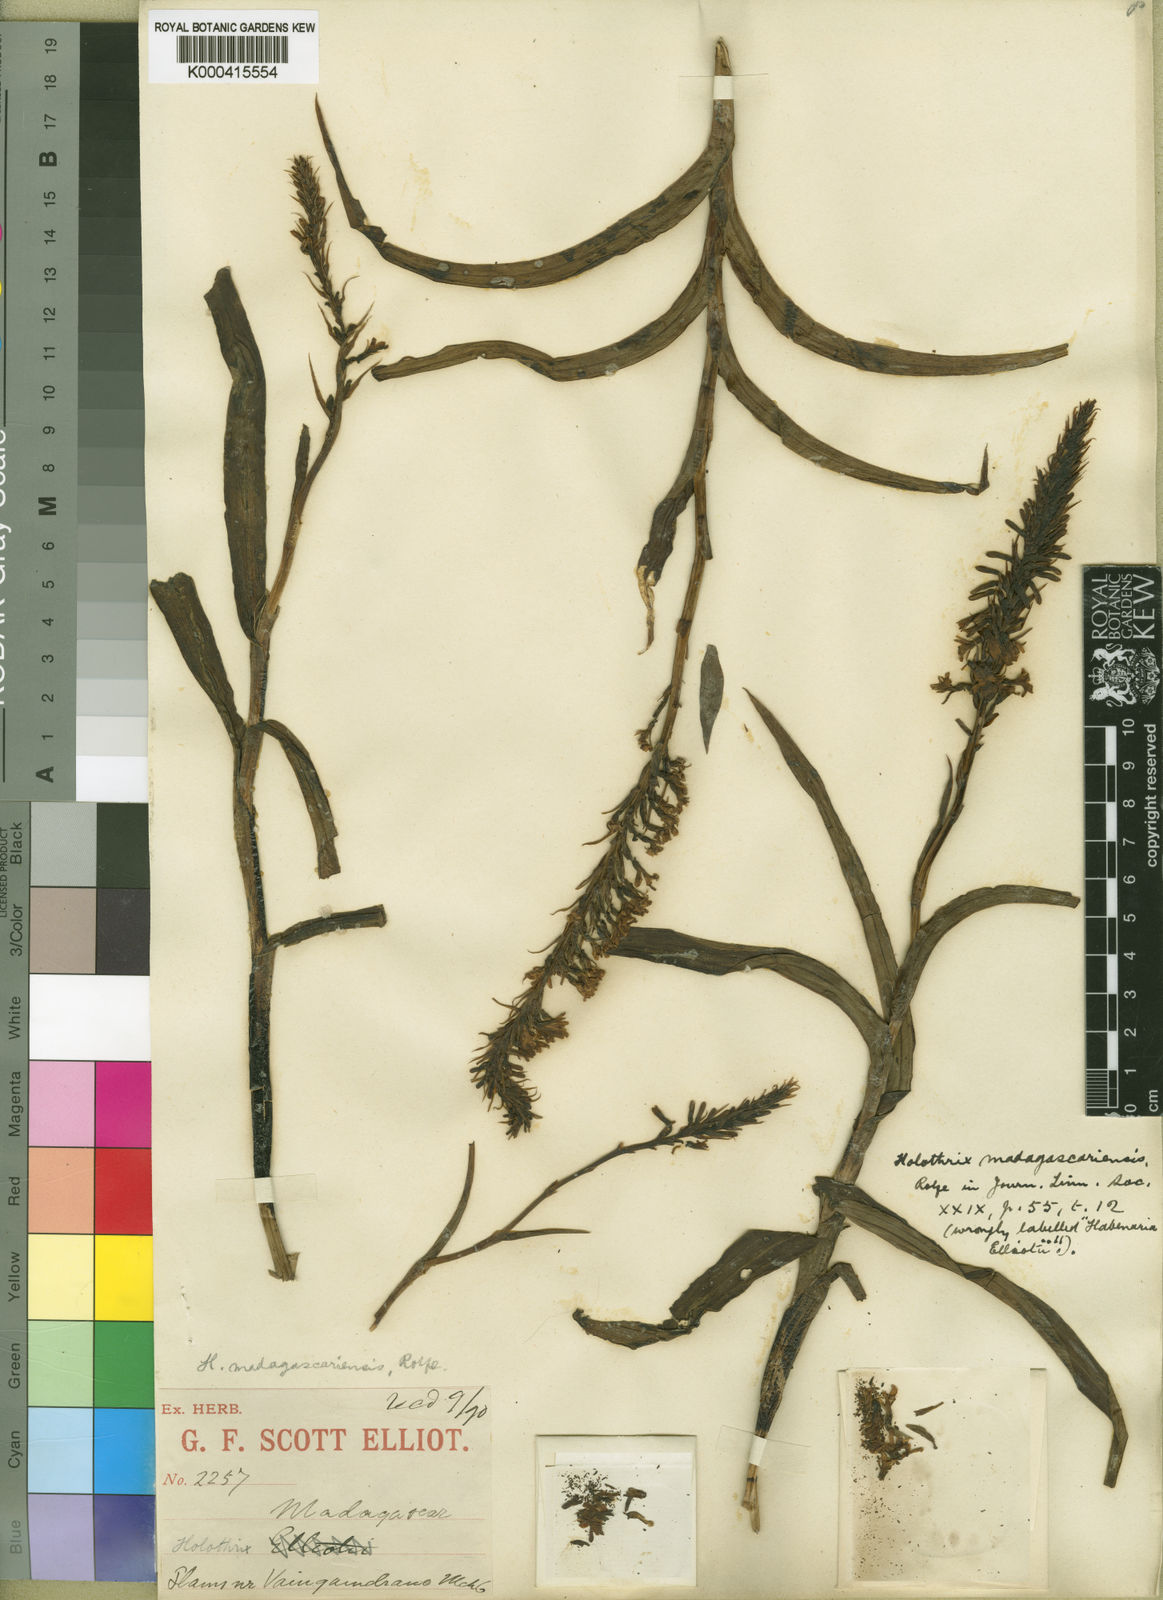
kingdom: Plantae
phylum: Tracheophyta
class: Liliopsida
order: Asparagales
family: Orchidaceae
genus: Benthamia
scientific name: Benthamia madagascariensis
